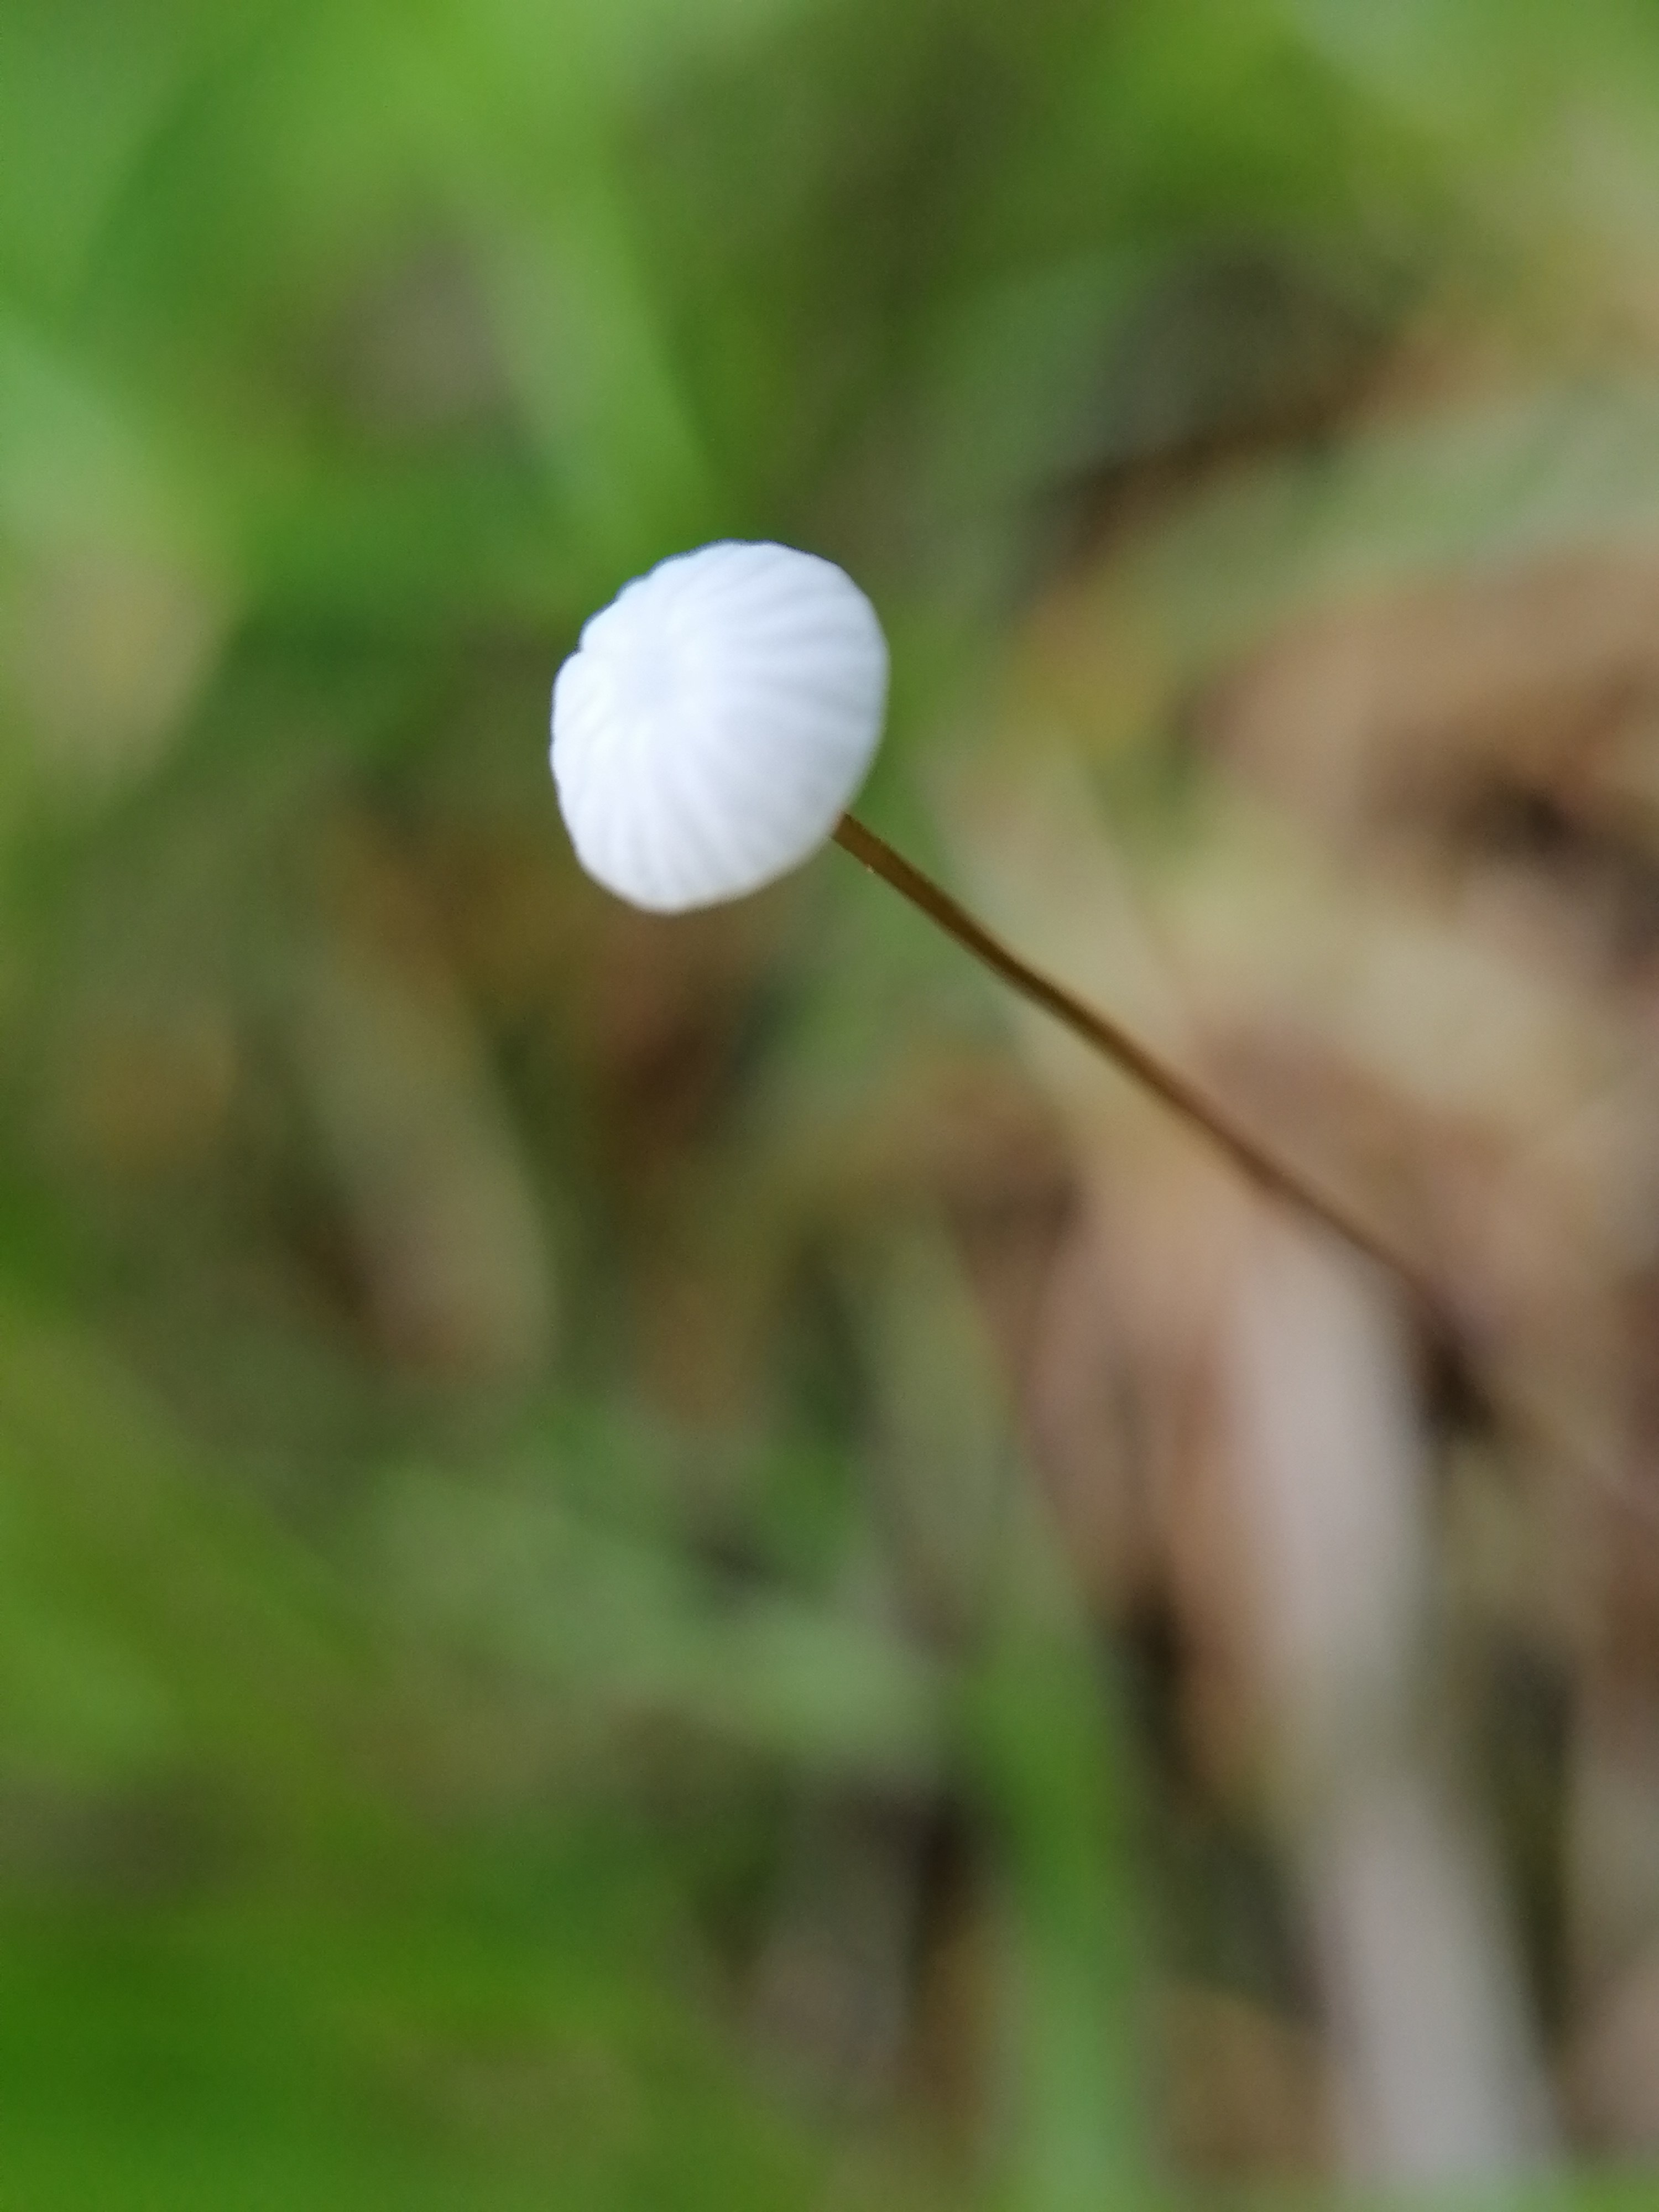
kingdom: Fungi
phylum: Basidiomycota
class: Agaricomycetes
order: Agaricales
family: Marasmiaceae
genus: Marasmius
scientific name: Marasmius
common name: bruskhat
